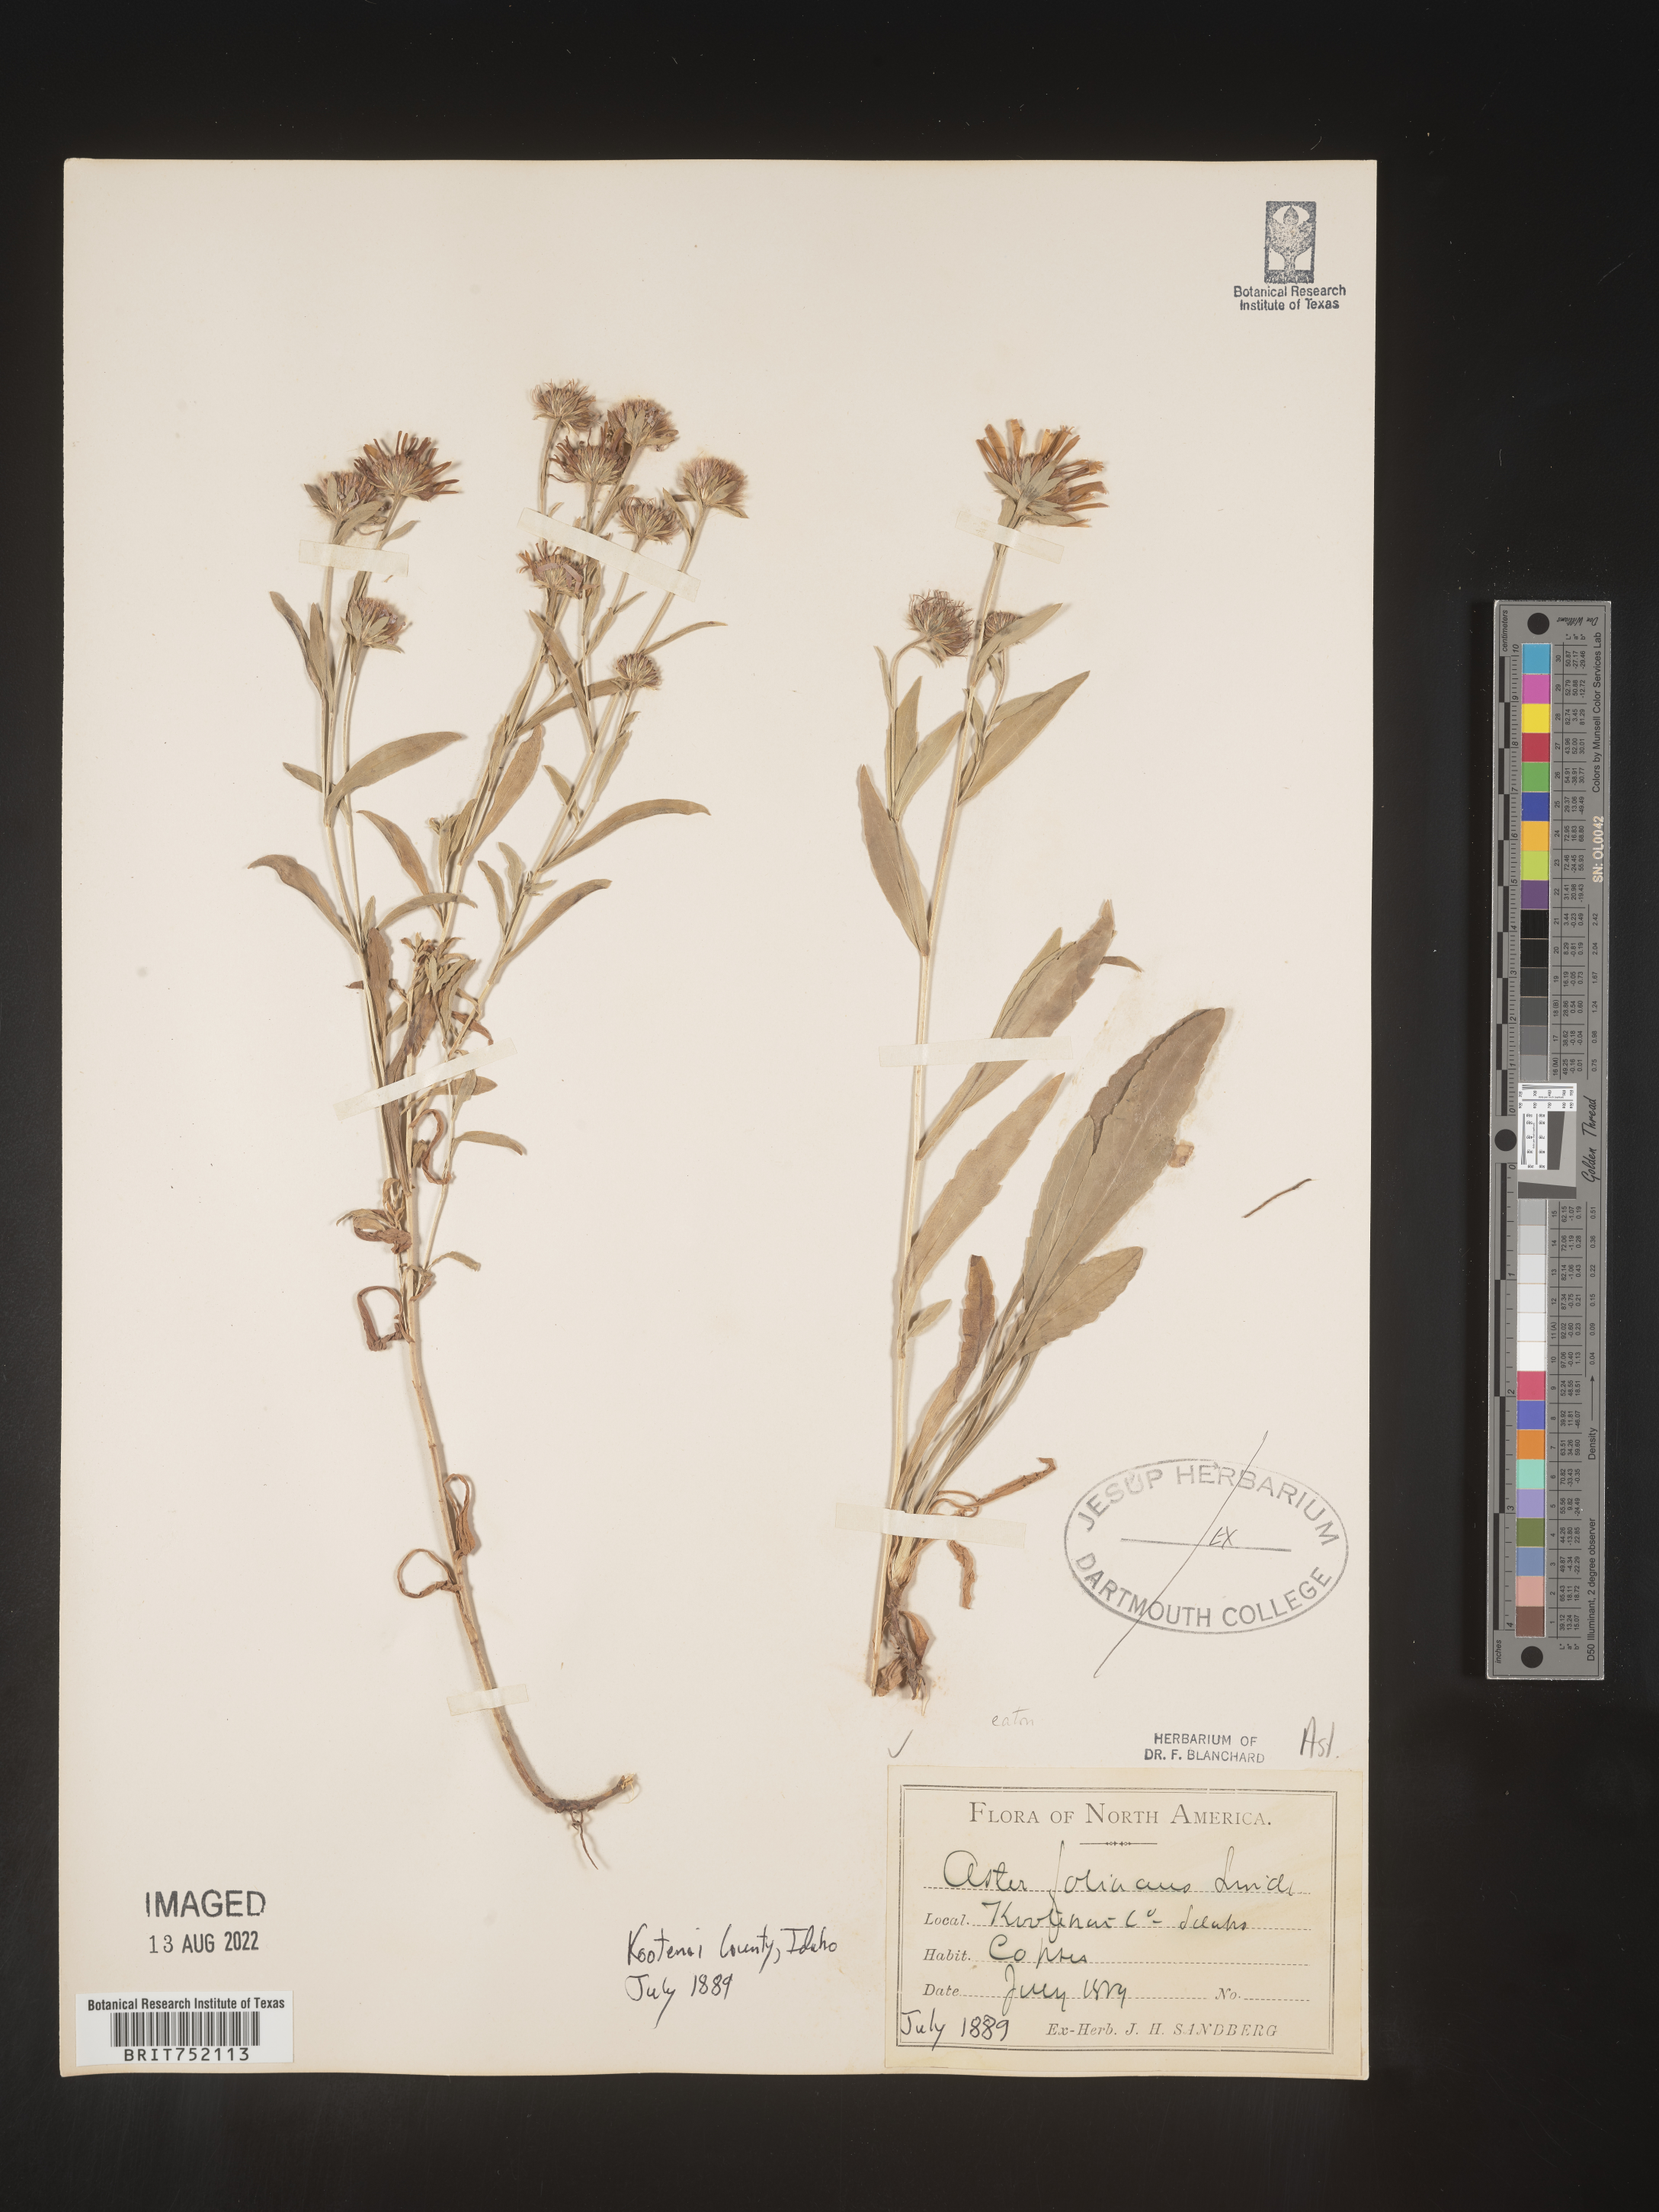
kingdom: Plantae
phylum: Tracheophyta
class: Magnoliopsida
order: Asterales
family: Asteraceae
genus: Symphyotrichum
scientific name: Symphyotrichum foliaceum
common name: Leafy aster
